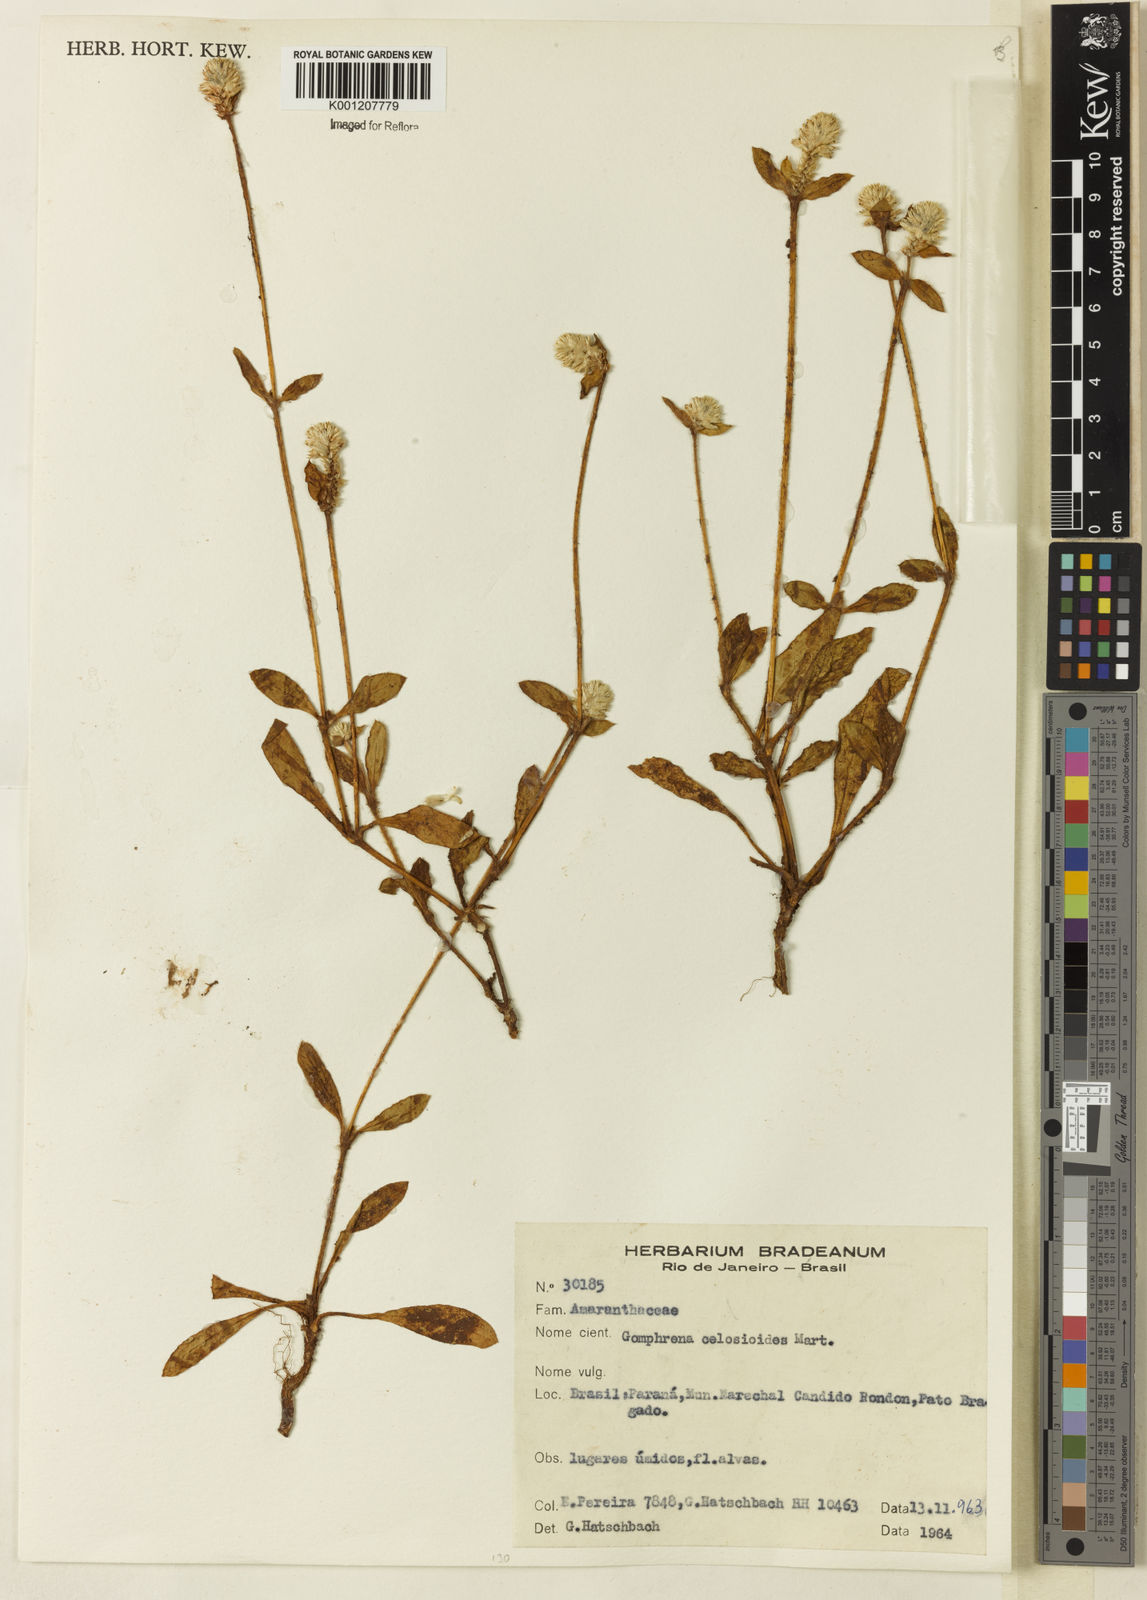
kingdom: Plantae
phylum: Tracheophyta
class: Magnoliopsida
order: Caryophyllales
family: Amaranthaceae
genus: Gomphrena
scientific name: Gomphrena celosioides
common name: Gomphrena-weed
